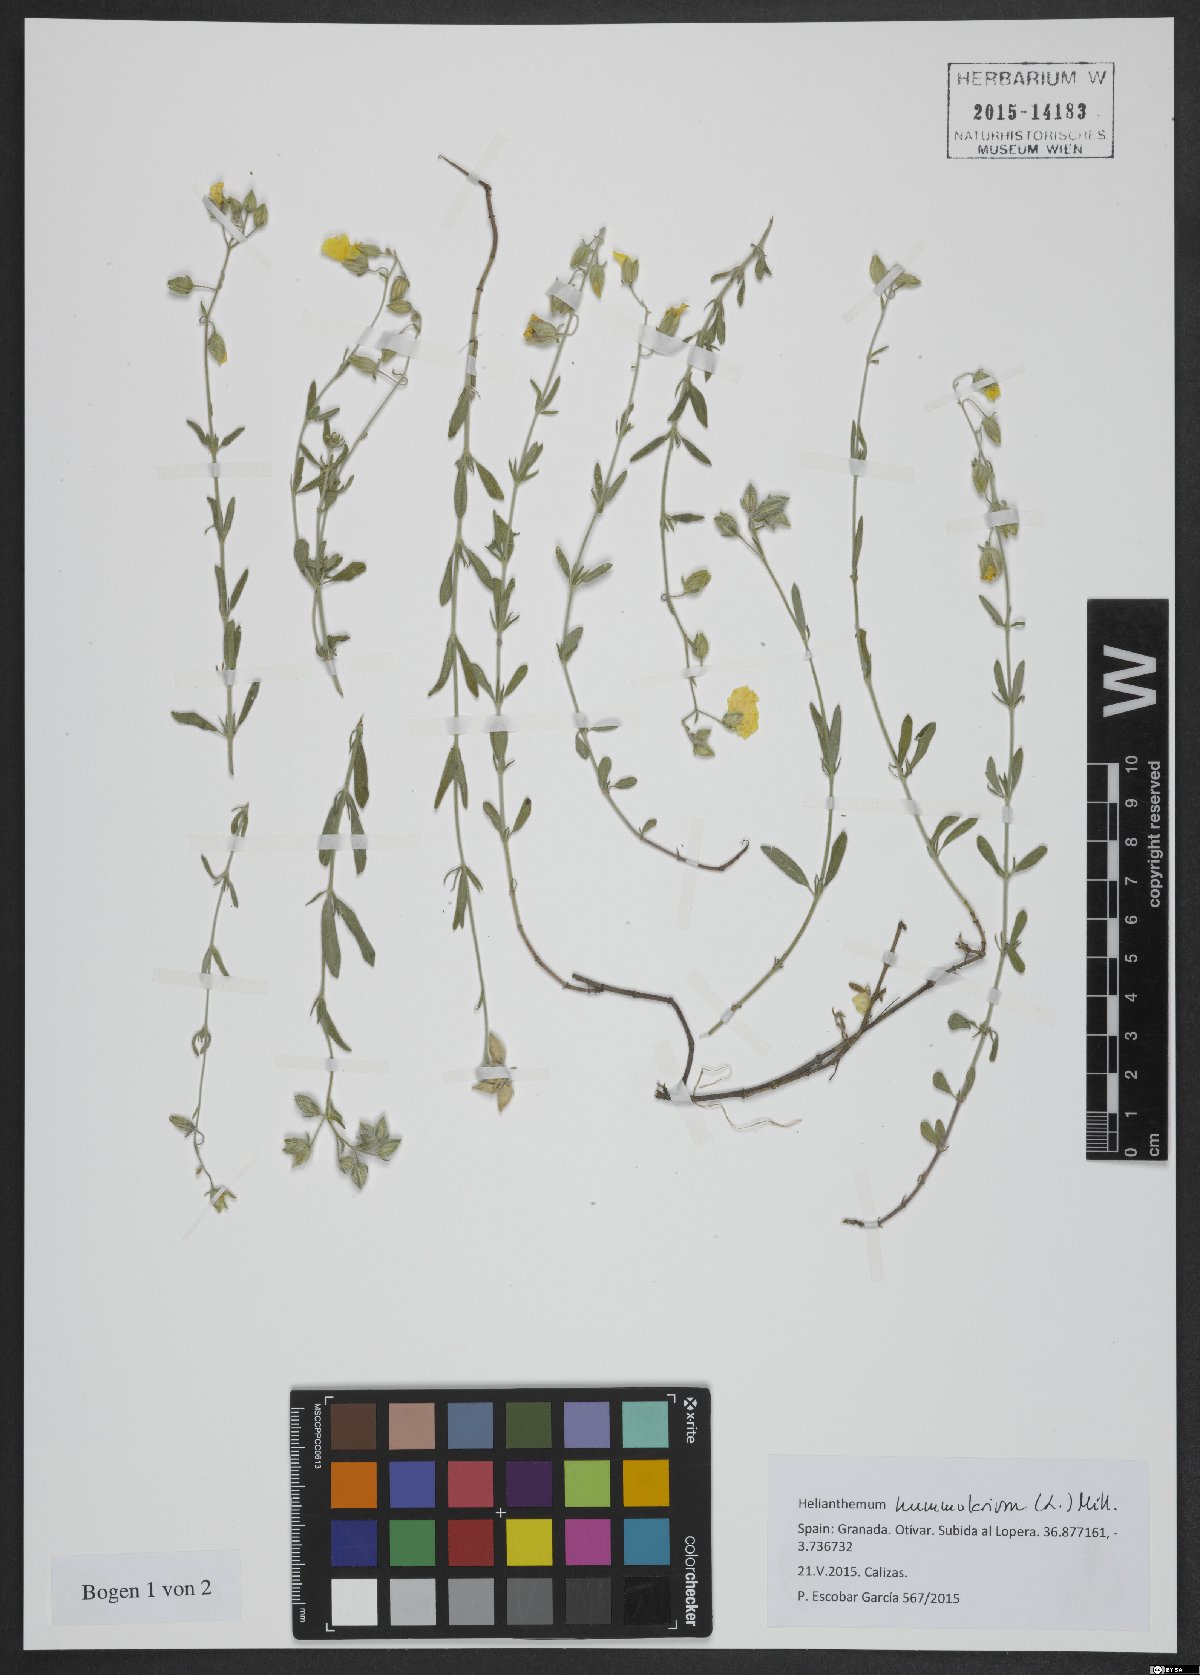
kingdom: Plantae
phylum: Tracheophyta
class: Magnoliopsida
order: Malvales
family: Cistaceae
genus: Helianthemum
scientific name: Helianthemum nummularium
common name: Common rock-rose
